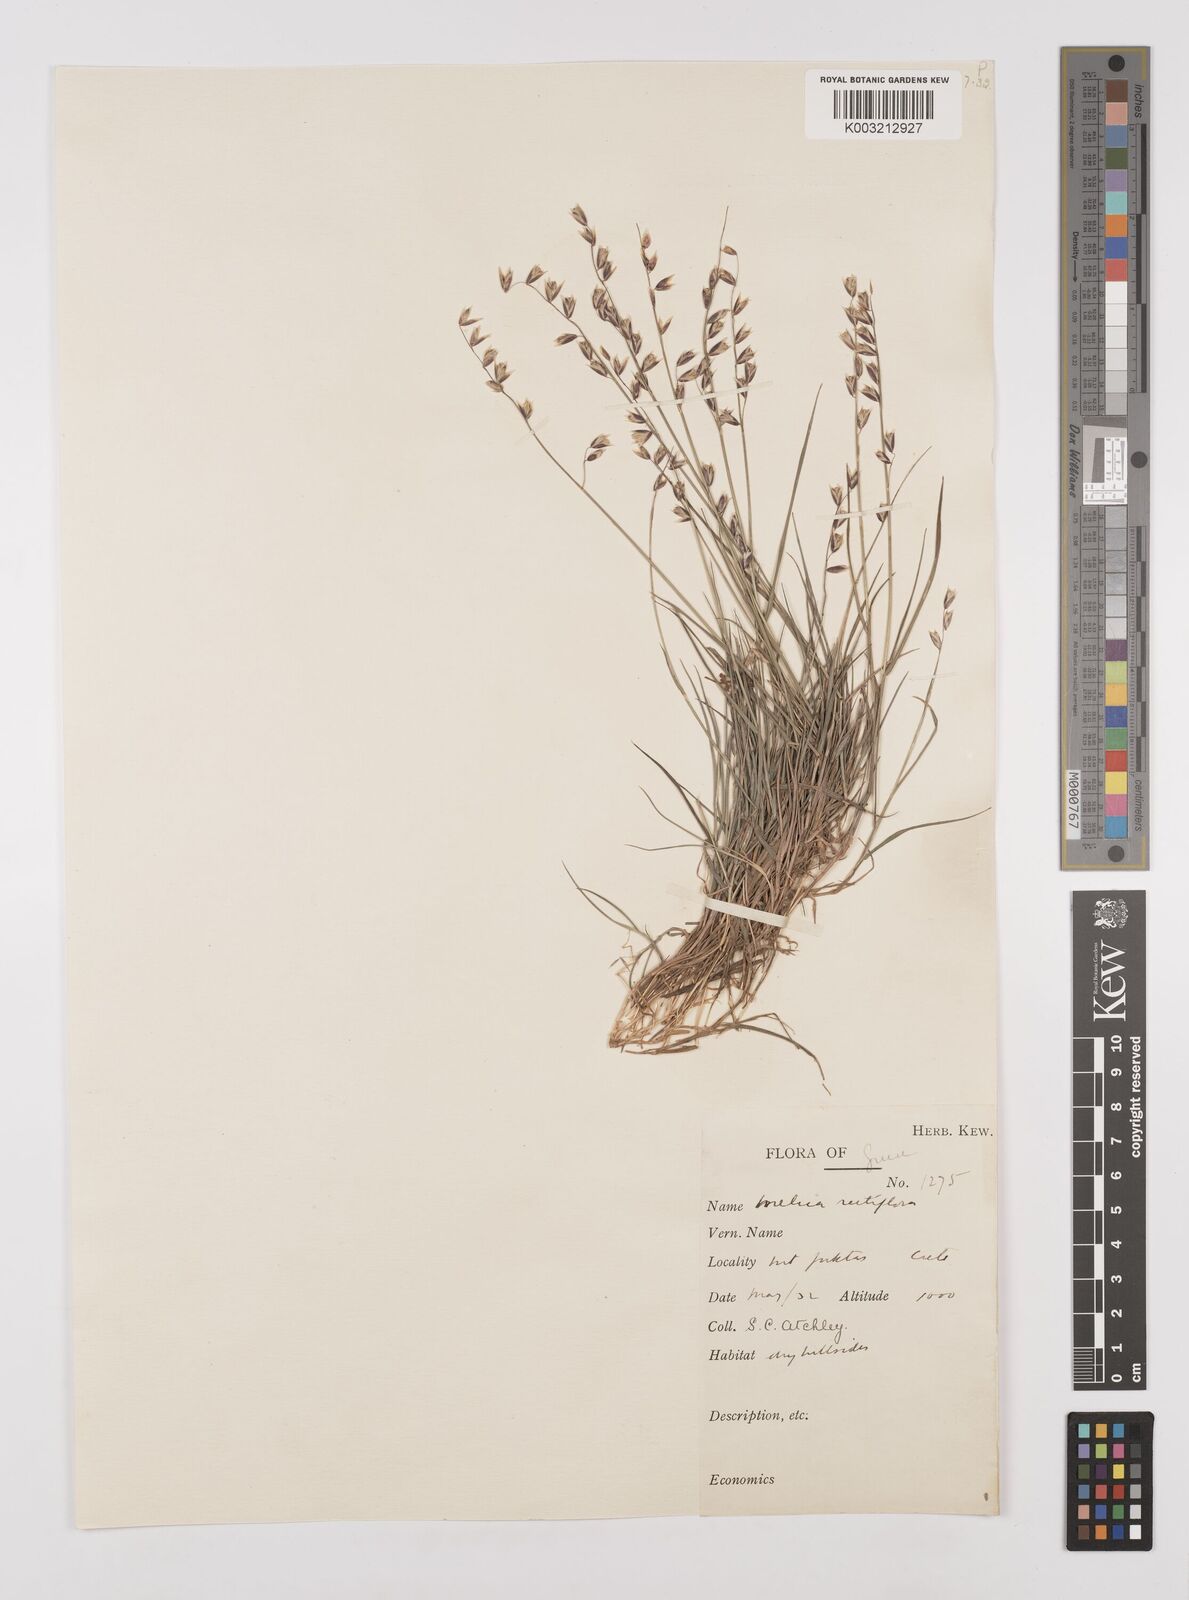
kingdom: Plantae
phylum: Tracheophyta
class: Liliopsida
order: Poales
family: Poaceae
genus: Melica
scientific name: Melica minuta
